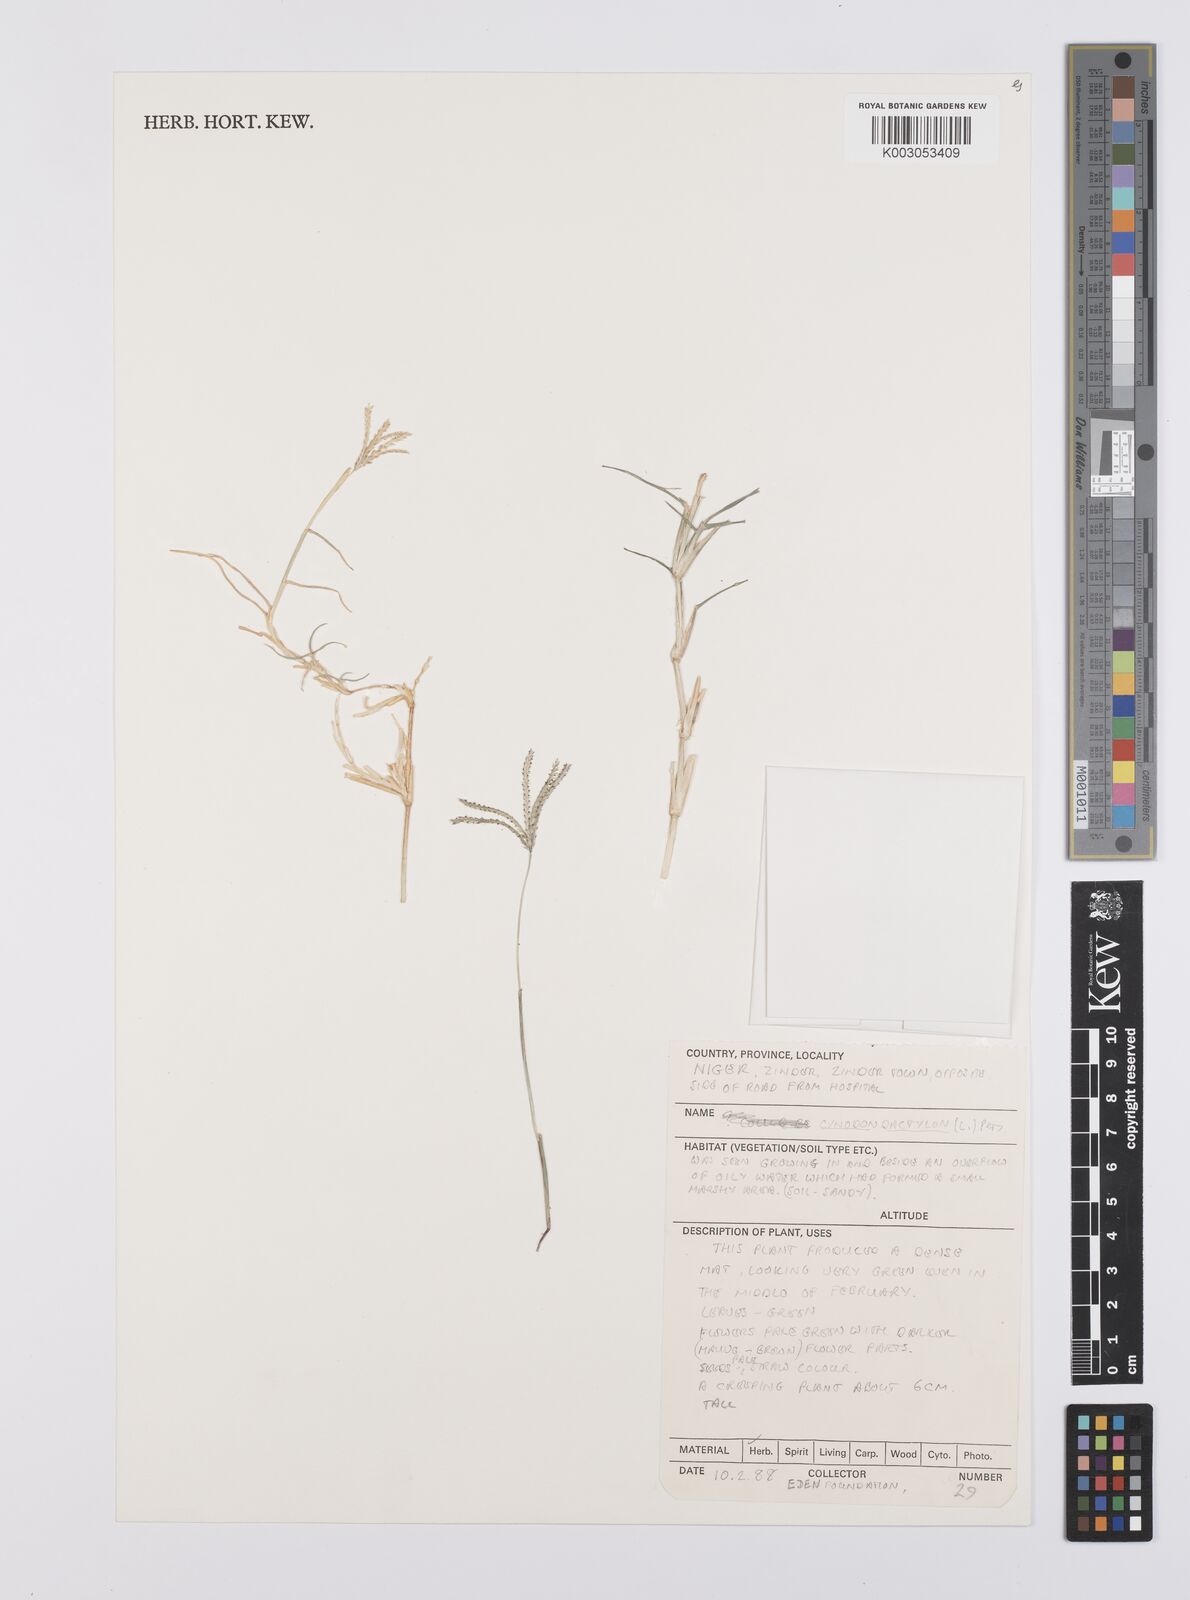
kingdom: Plantae
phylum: Tracheophyta
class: Liliopsida
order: Poales
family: Poaceae
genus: Cynodon
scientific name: Cynodon dactylon
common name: Bermuda grass
